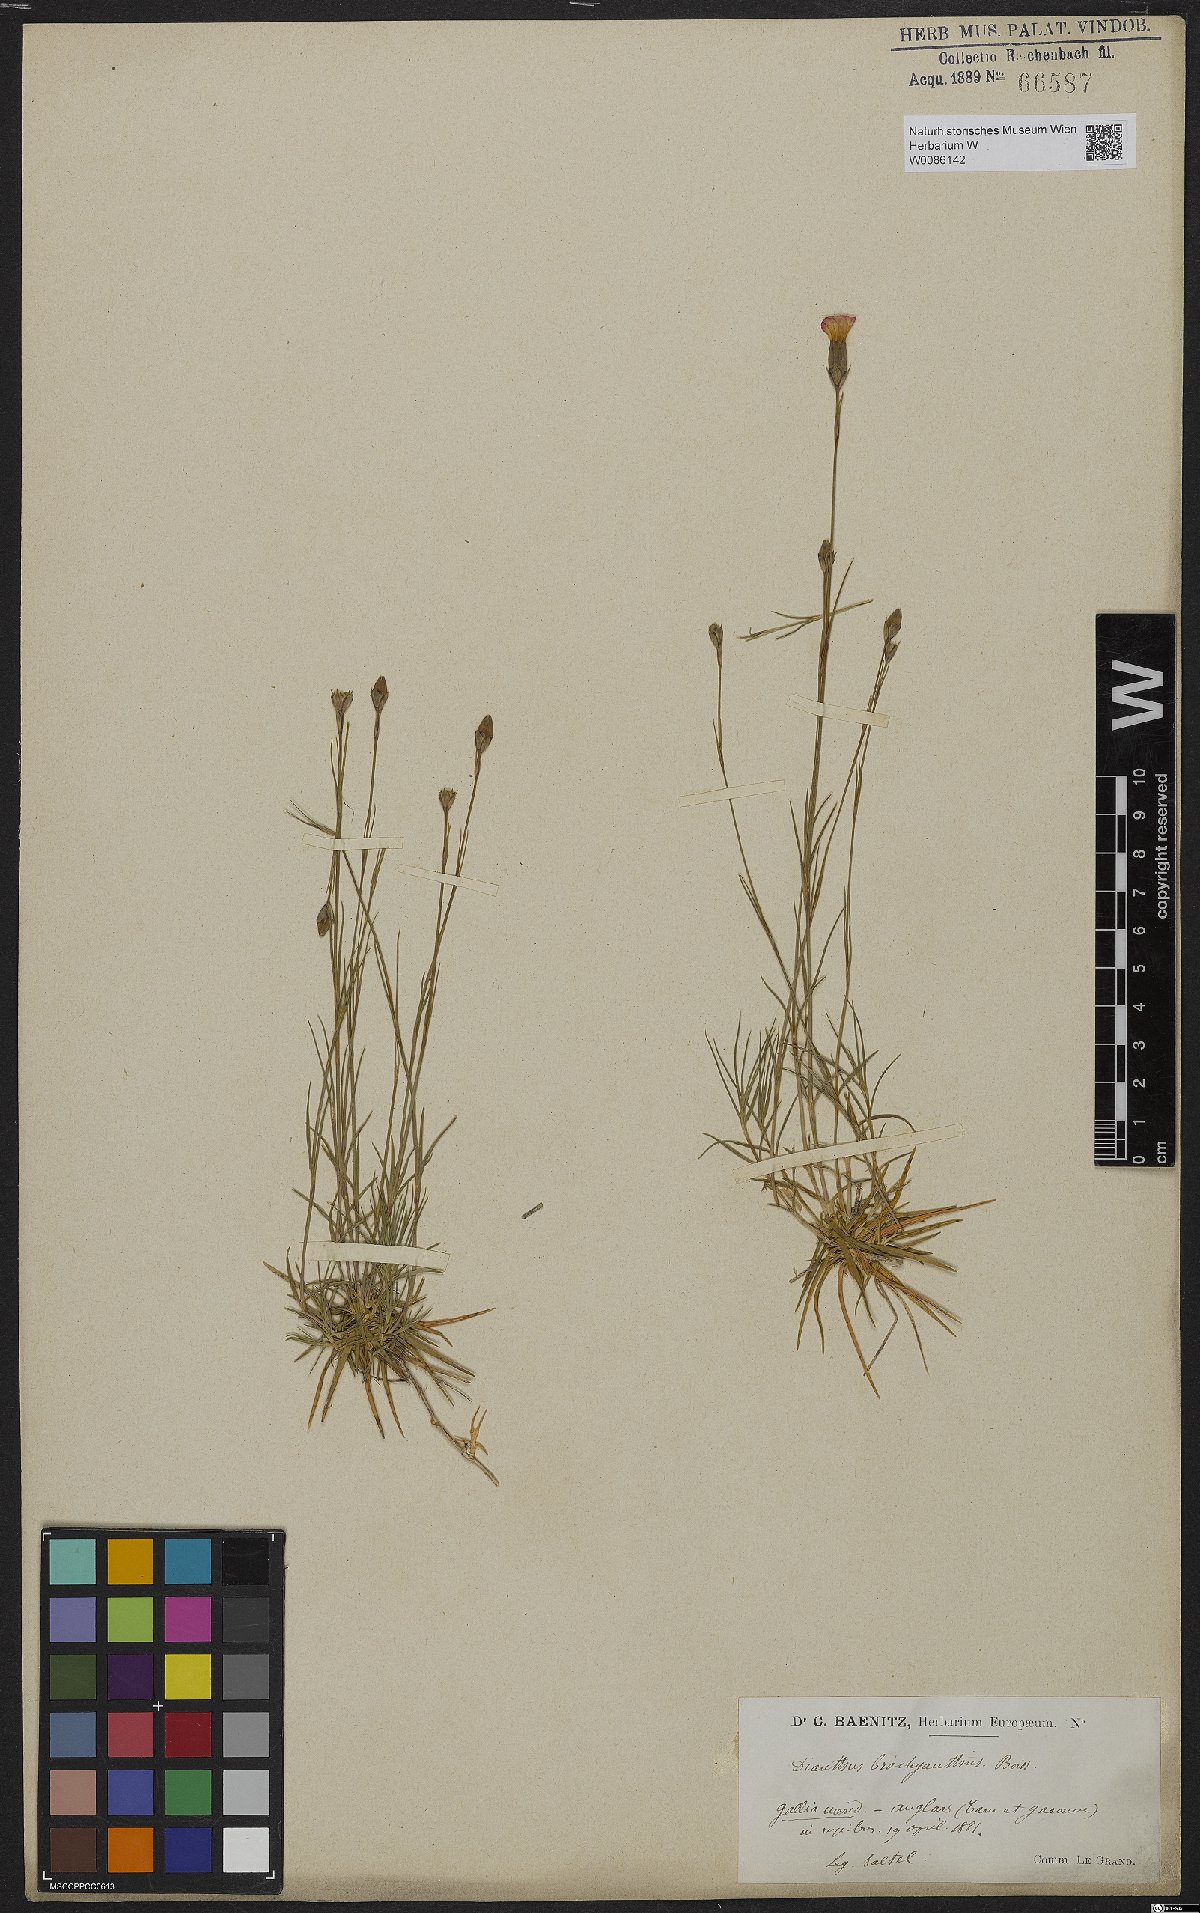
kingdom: Plantae
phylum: Tracheophyta
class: Magnoliopsida
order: Caryophyllales
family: Caryophyllaceae
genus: Dianthus
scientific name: Dianthus pungens
